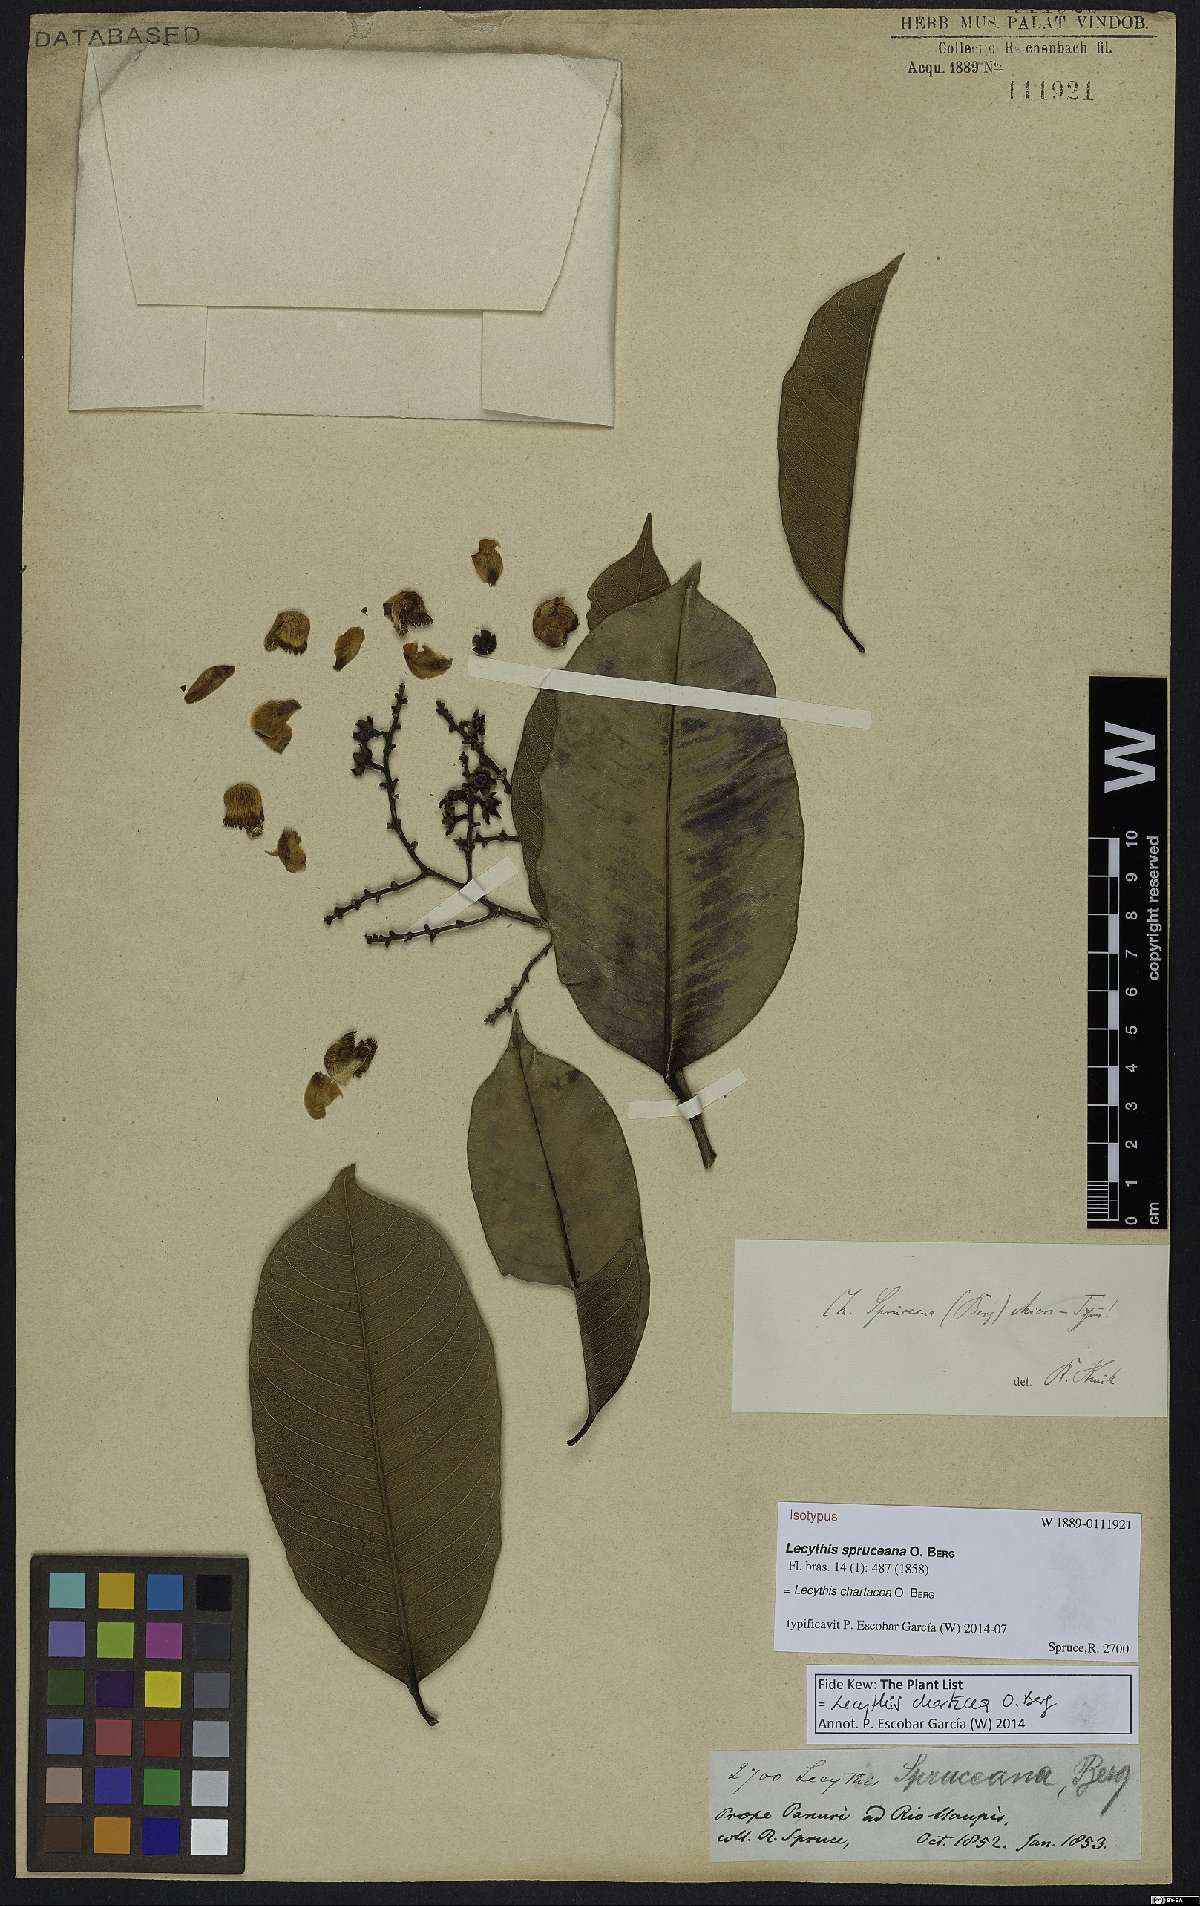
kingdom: Plantae
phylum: Tracheophyta
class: Magnoliopsida
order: Ericales
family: Lecythidaceae
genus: Lecythis
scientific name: Lecythis chartacea
